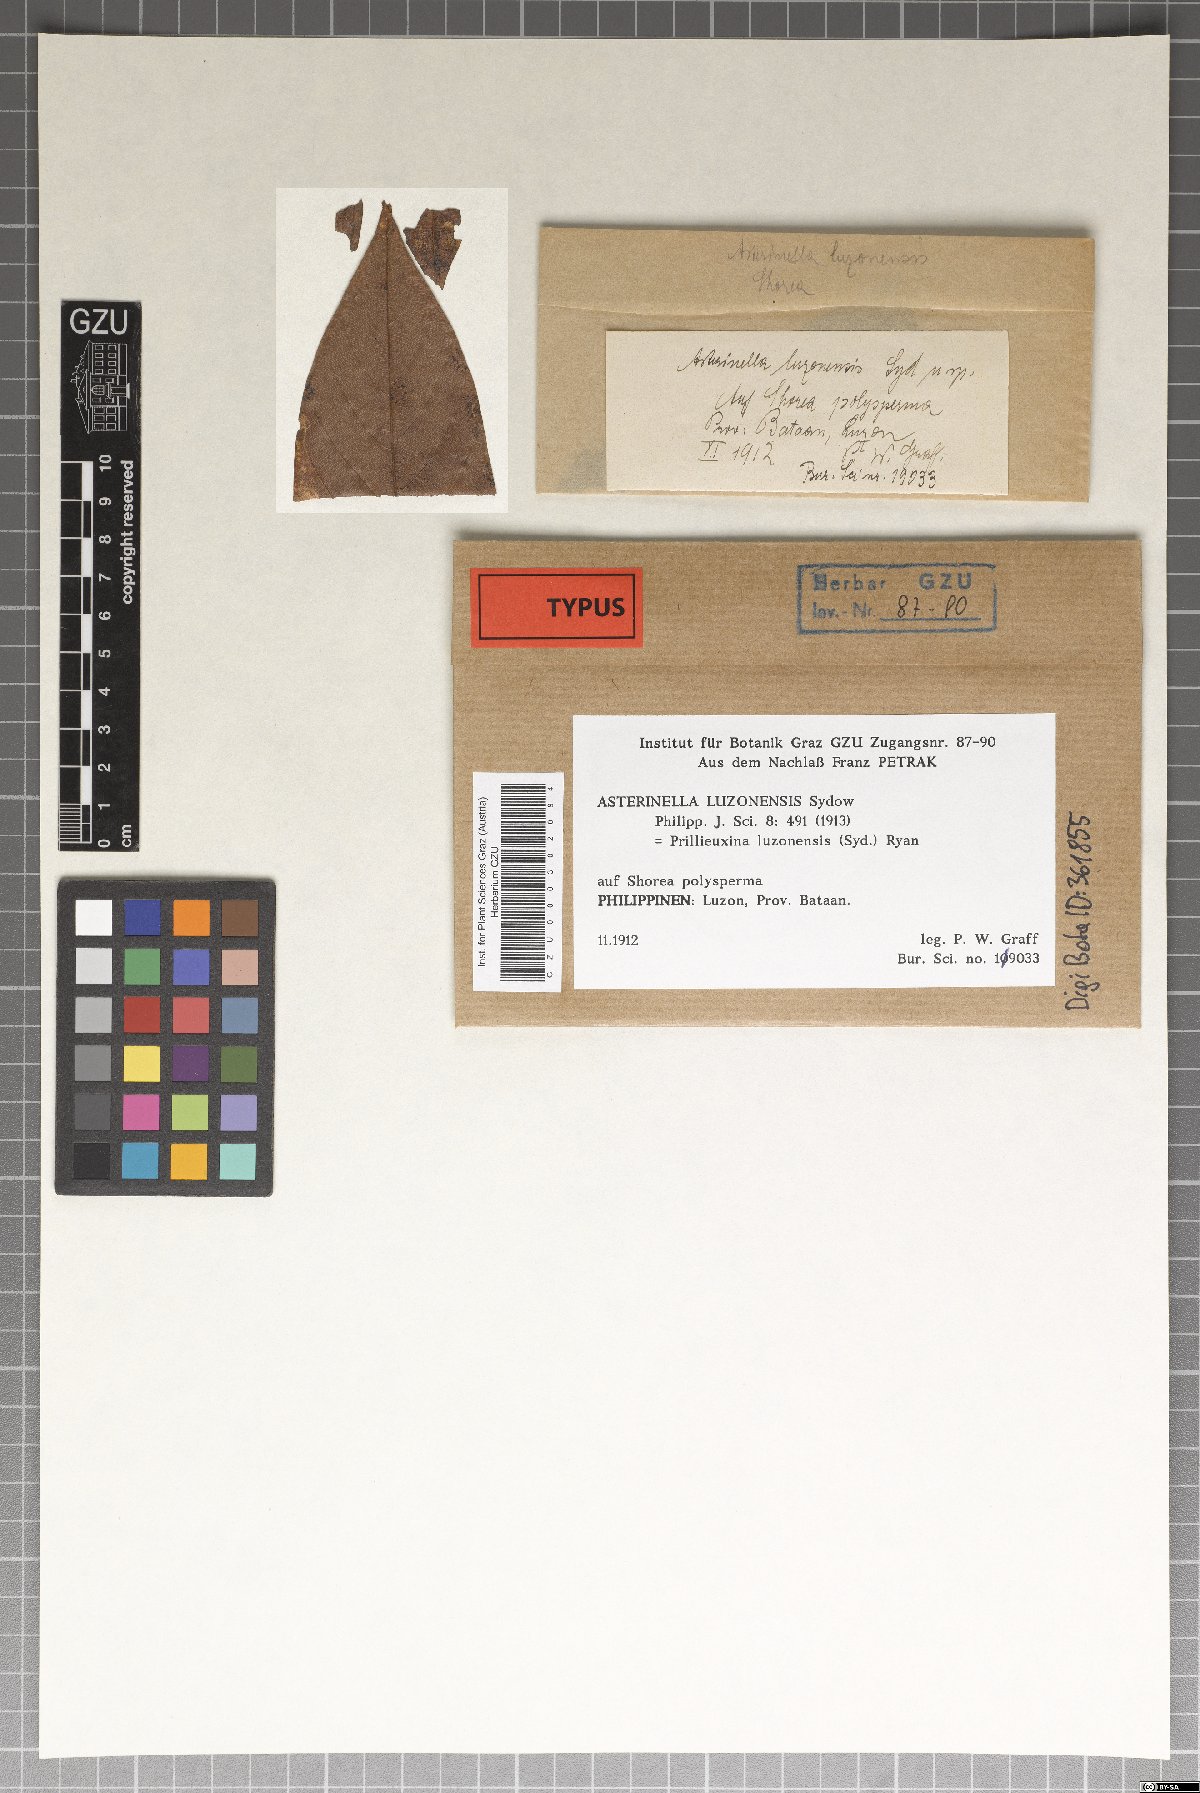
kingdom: Fungi
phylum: Ascomycota
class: Dothideomycetes
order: Asterinales
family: Asterinaceae
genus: Prillieuxina
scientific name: Prillieuxina luzonensis
